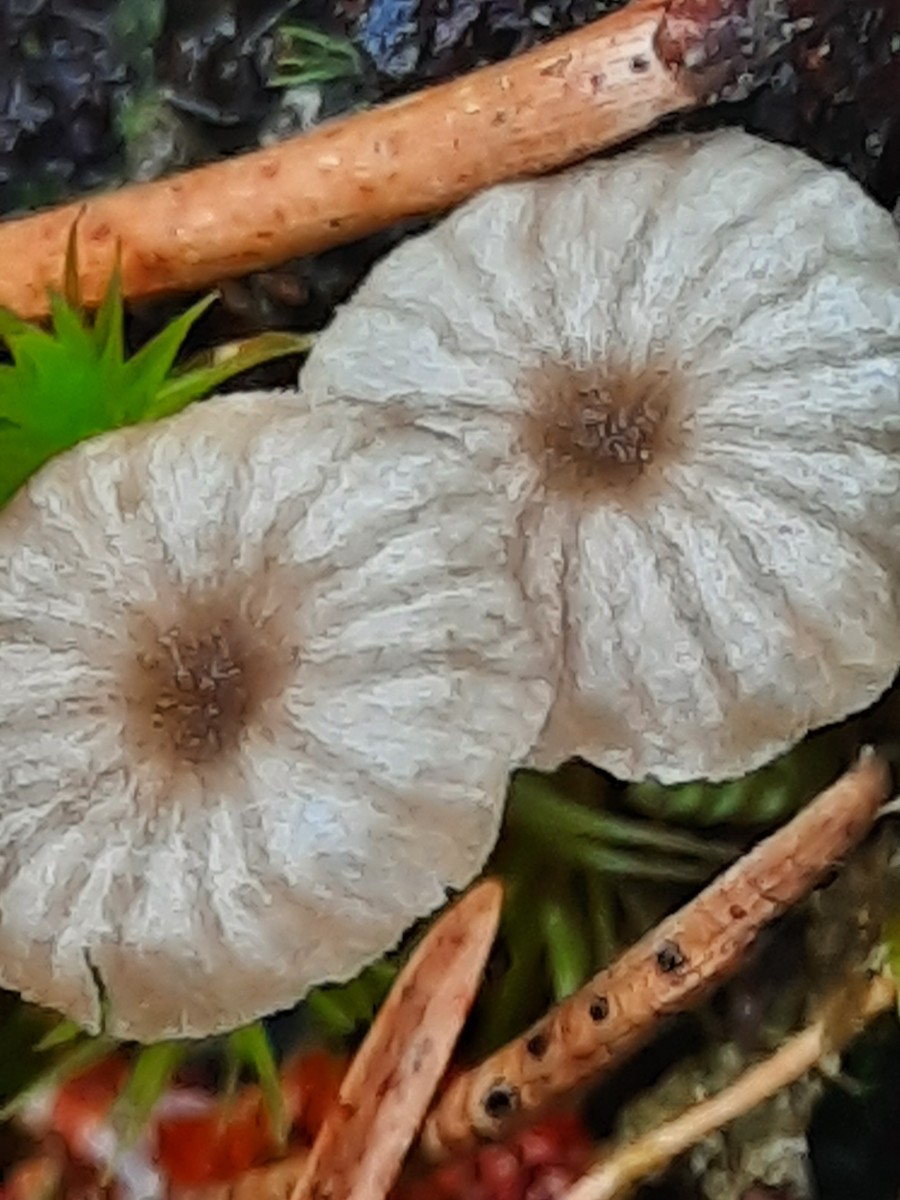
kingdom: Fungi
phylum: Basidiomycota
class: Agaricomycetes
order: Agaricales
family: Entolomataceae
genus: Entoloma
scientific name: Entoloma rhodocylix
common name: fjernbladet rødblad
